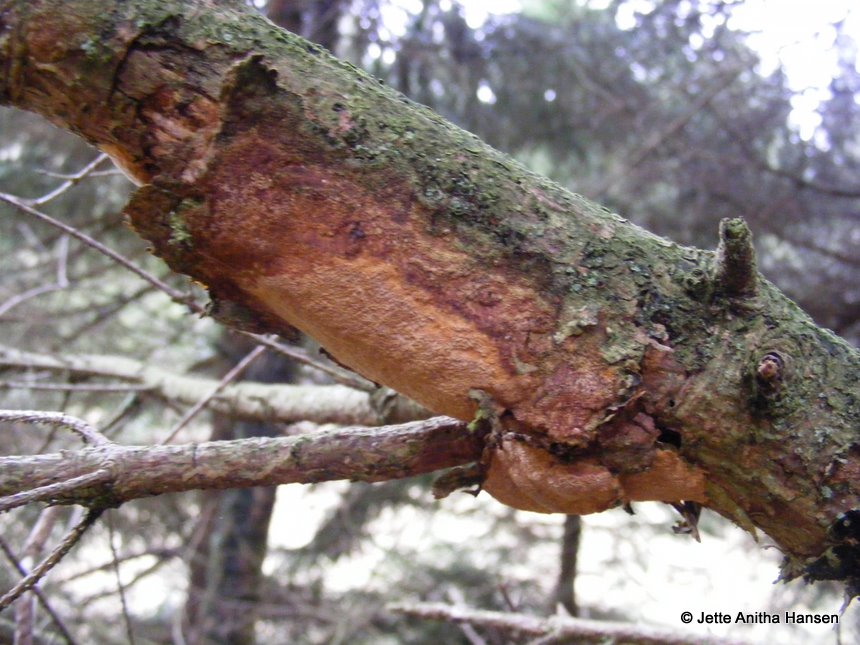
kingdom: Fungi
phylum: Basidiomycota
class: Agaricomycetes
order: Hymenochaetales
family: Hymenochaetaceae
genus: Fuscoporia
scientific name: Fuscoporia ferrea
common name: skorpe-ildporesvamp
